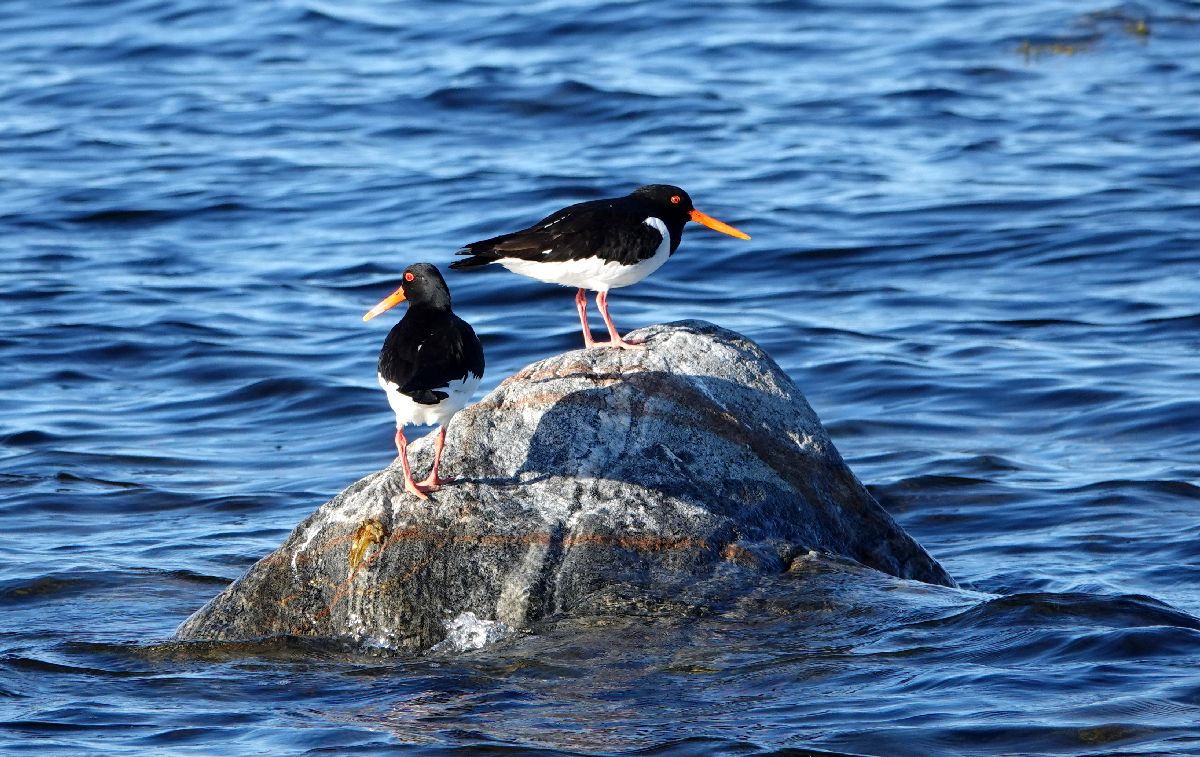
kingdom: Animalia
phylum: Chordata
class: Aves
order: Charadriiformes
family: Haematopodidae
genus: Haematopus
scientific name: Haematopus ostralegus
